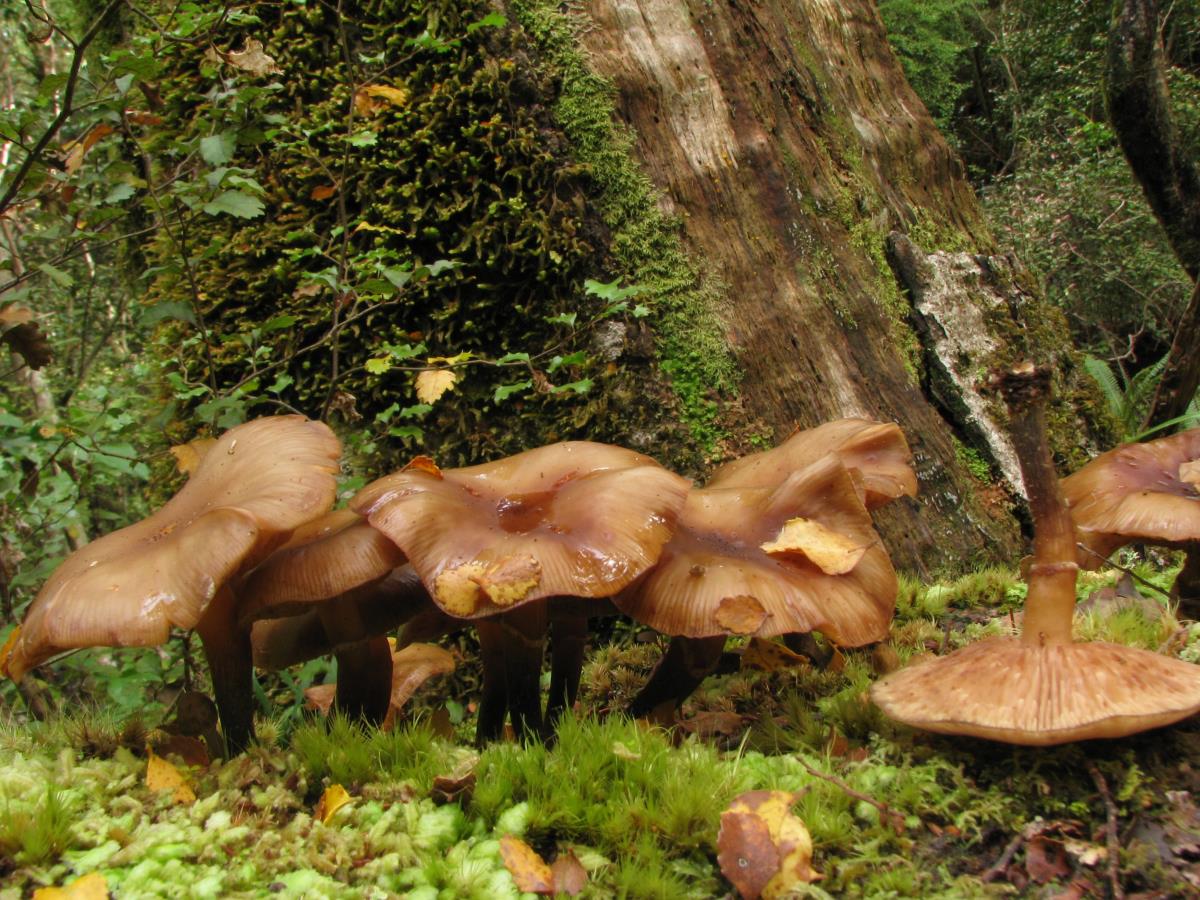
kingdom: Fungi
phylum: Basidiomycota
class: Agaricomycetes
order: Agaricales
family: Physalacriaceae
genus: Armillaria
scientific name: Armillaria novae-zelandiae
